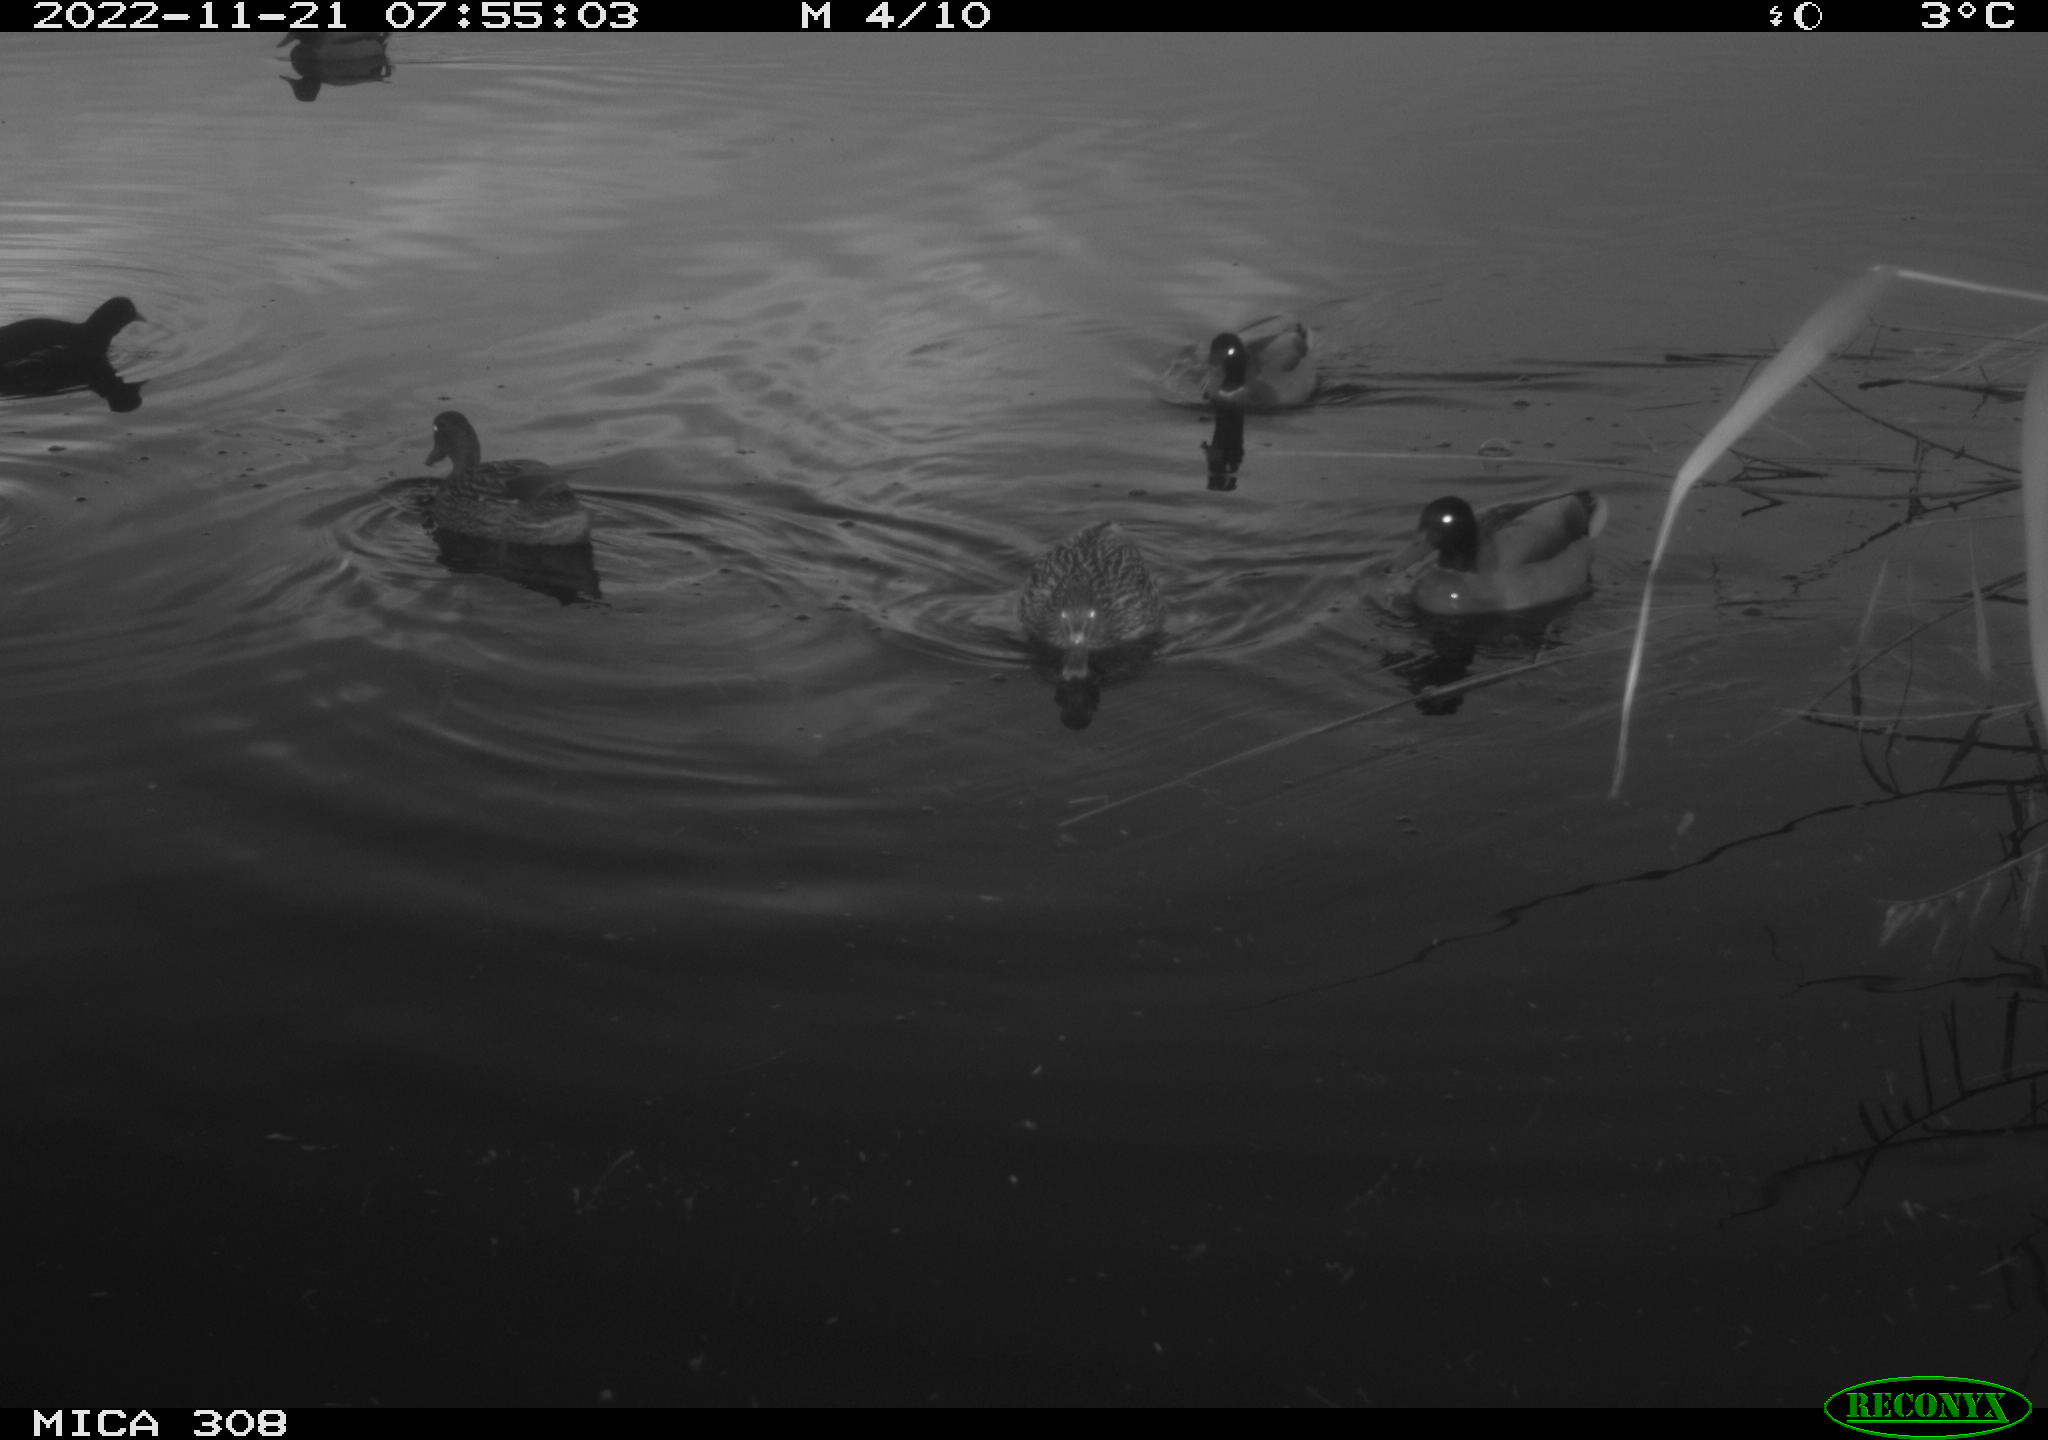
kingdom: Animalia
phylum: Chordata
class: Aves
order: Anseriformes
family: Anatidae
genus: Anas
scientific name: Anas
